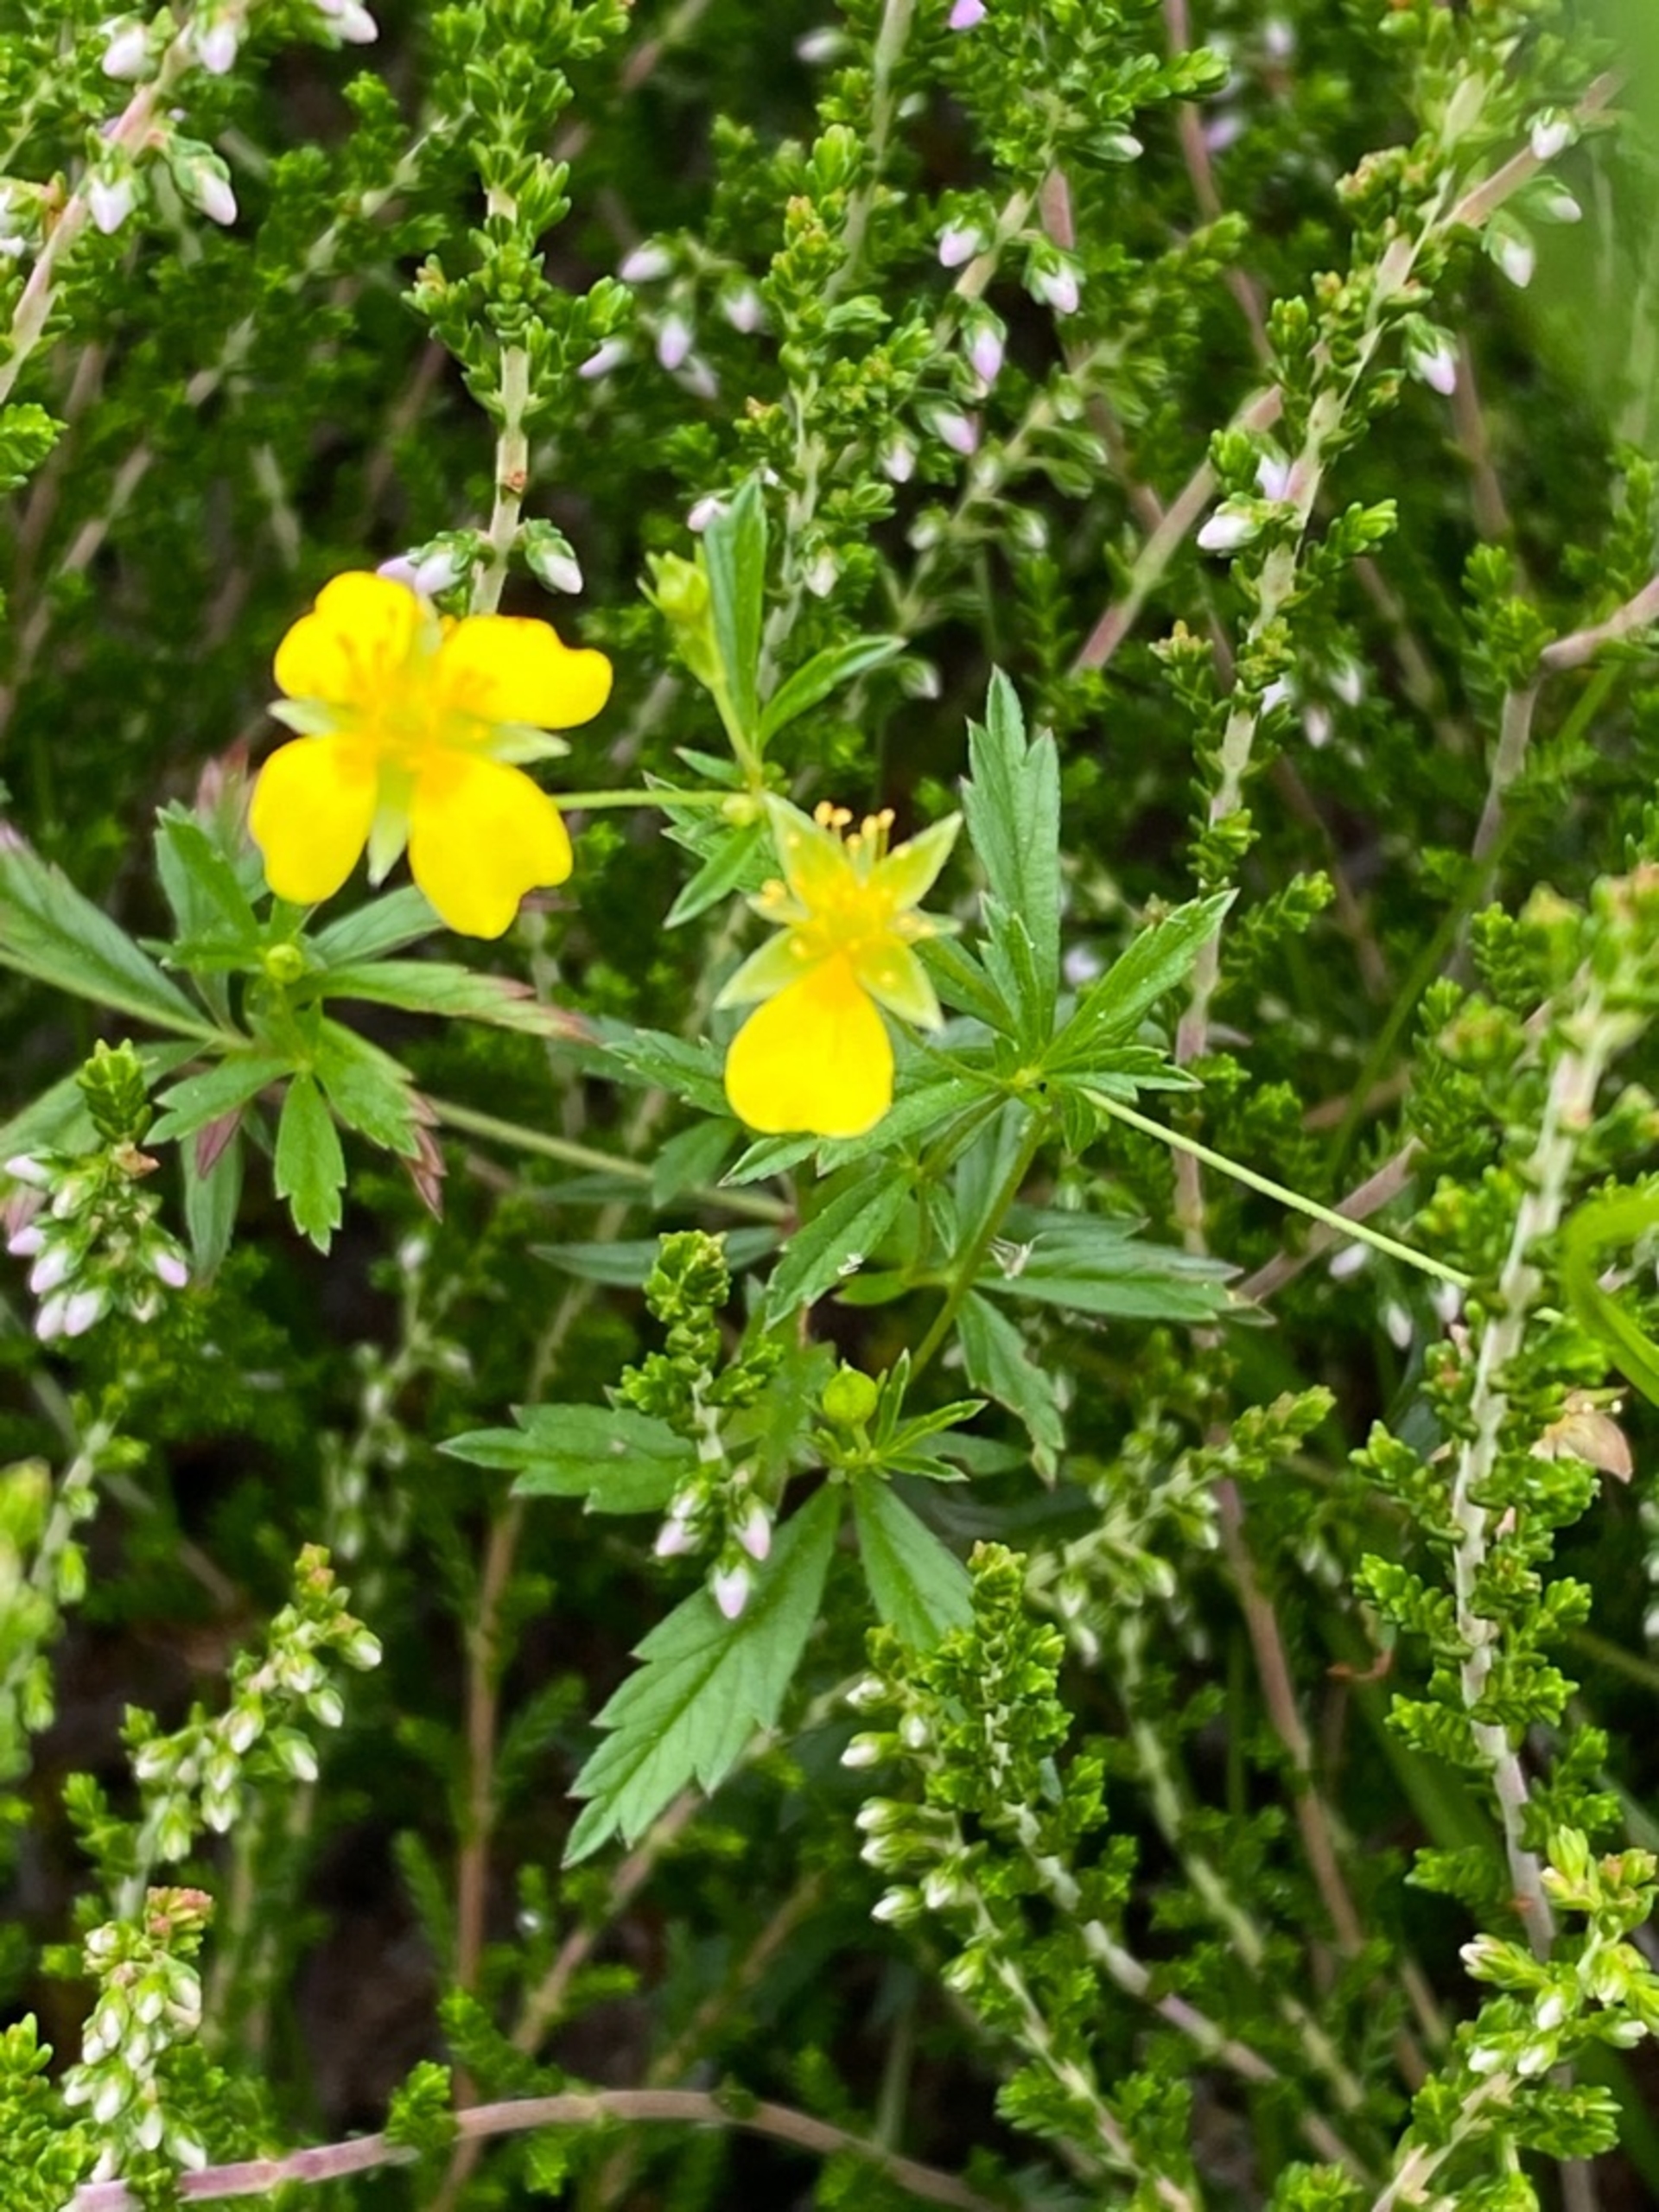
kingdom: Plantae
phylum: Tracheophyta
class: Magnoliopsida
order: Rosales
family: Rosaceae
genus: Potentilla
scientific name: Potentilla erecta
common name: Tormentil
